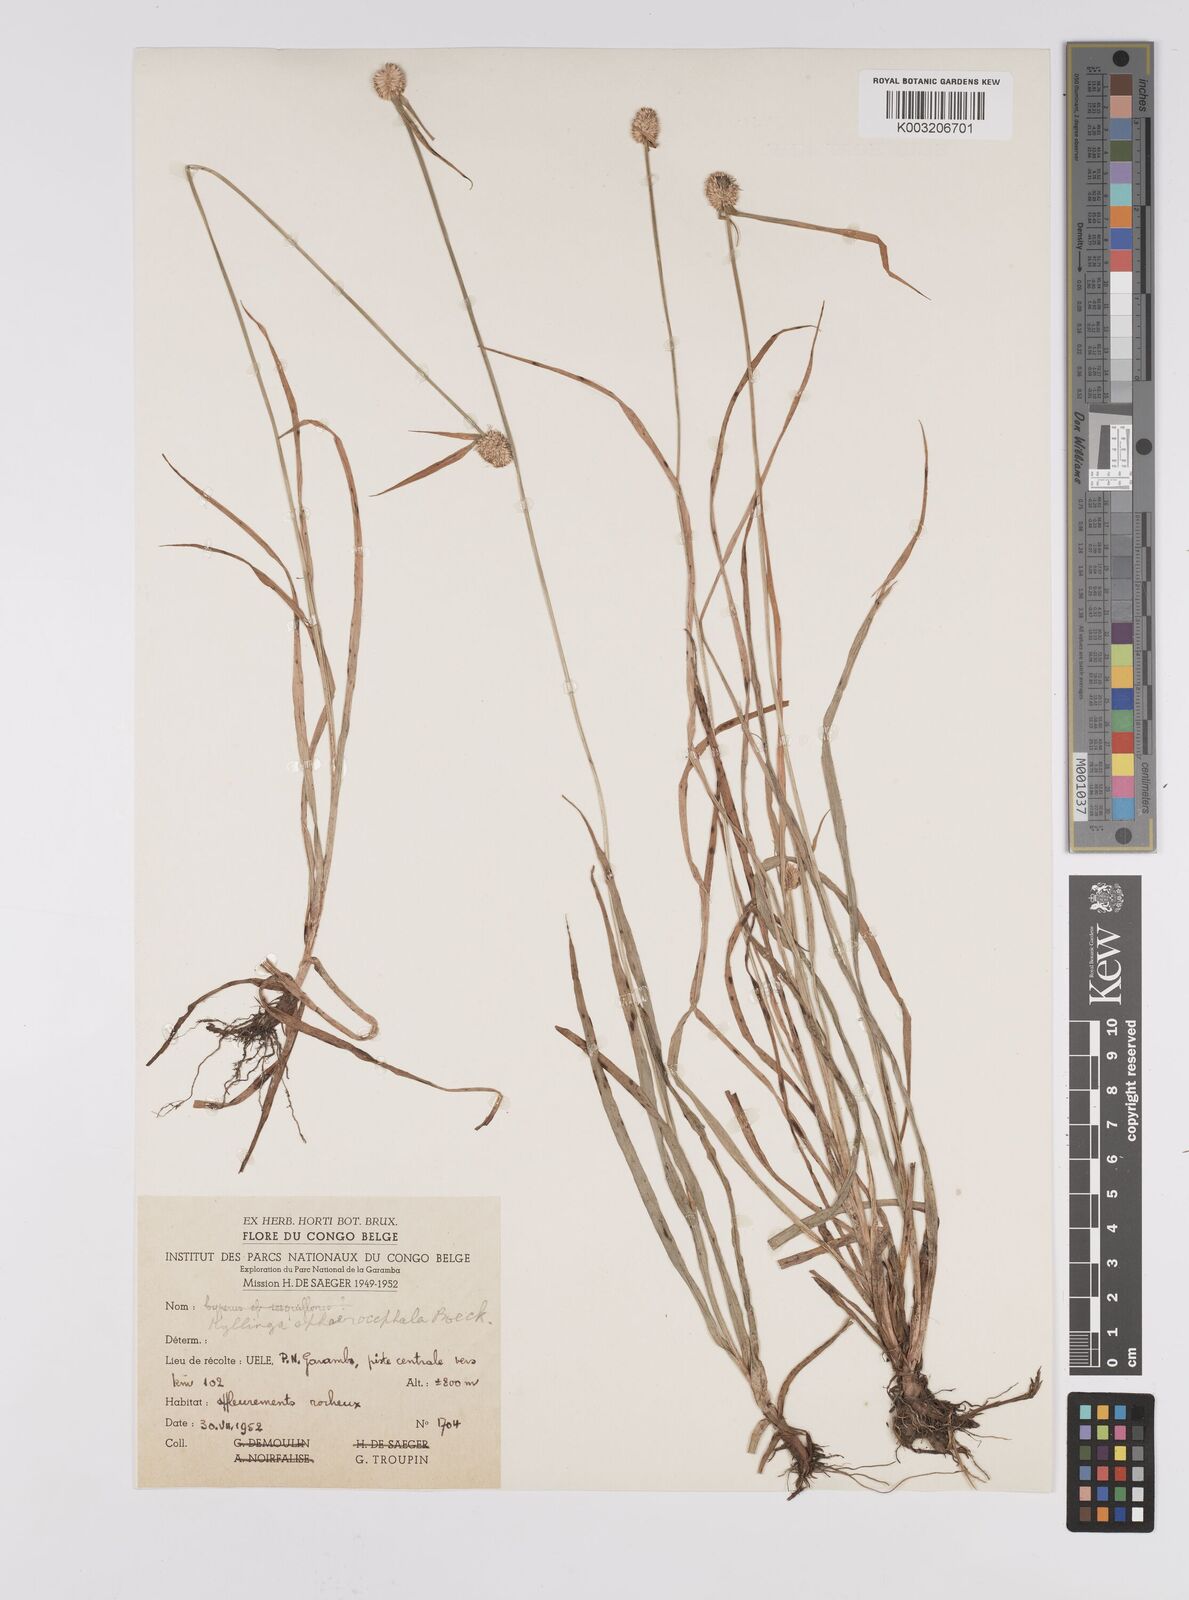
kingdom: Plantae
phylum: Tracheophyta
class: Liliopsida
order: Poales
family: Cyperaceae
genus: Cyperus
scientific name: Cyperus sphaerolepis
